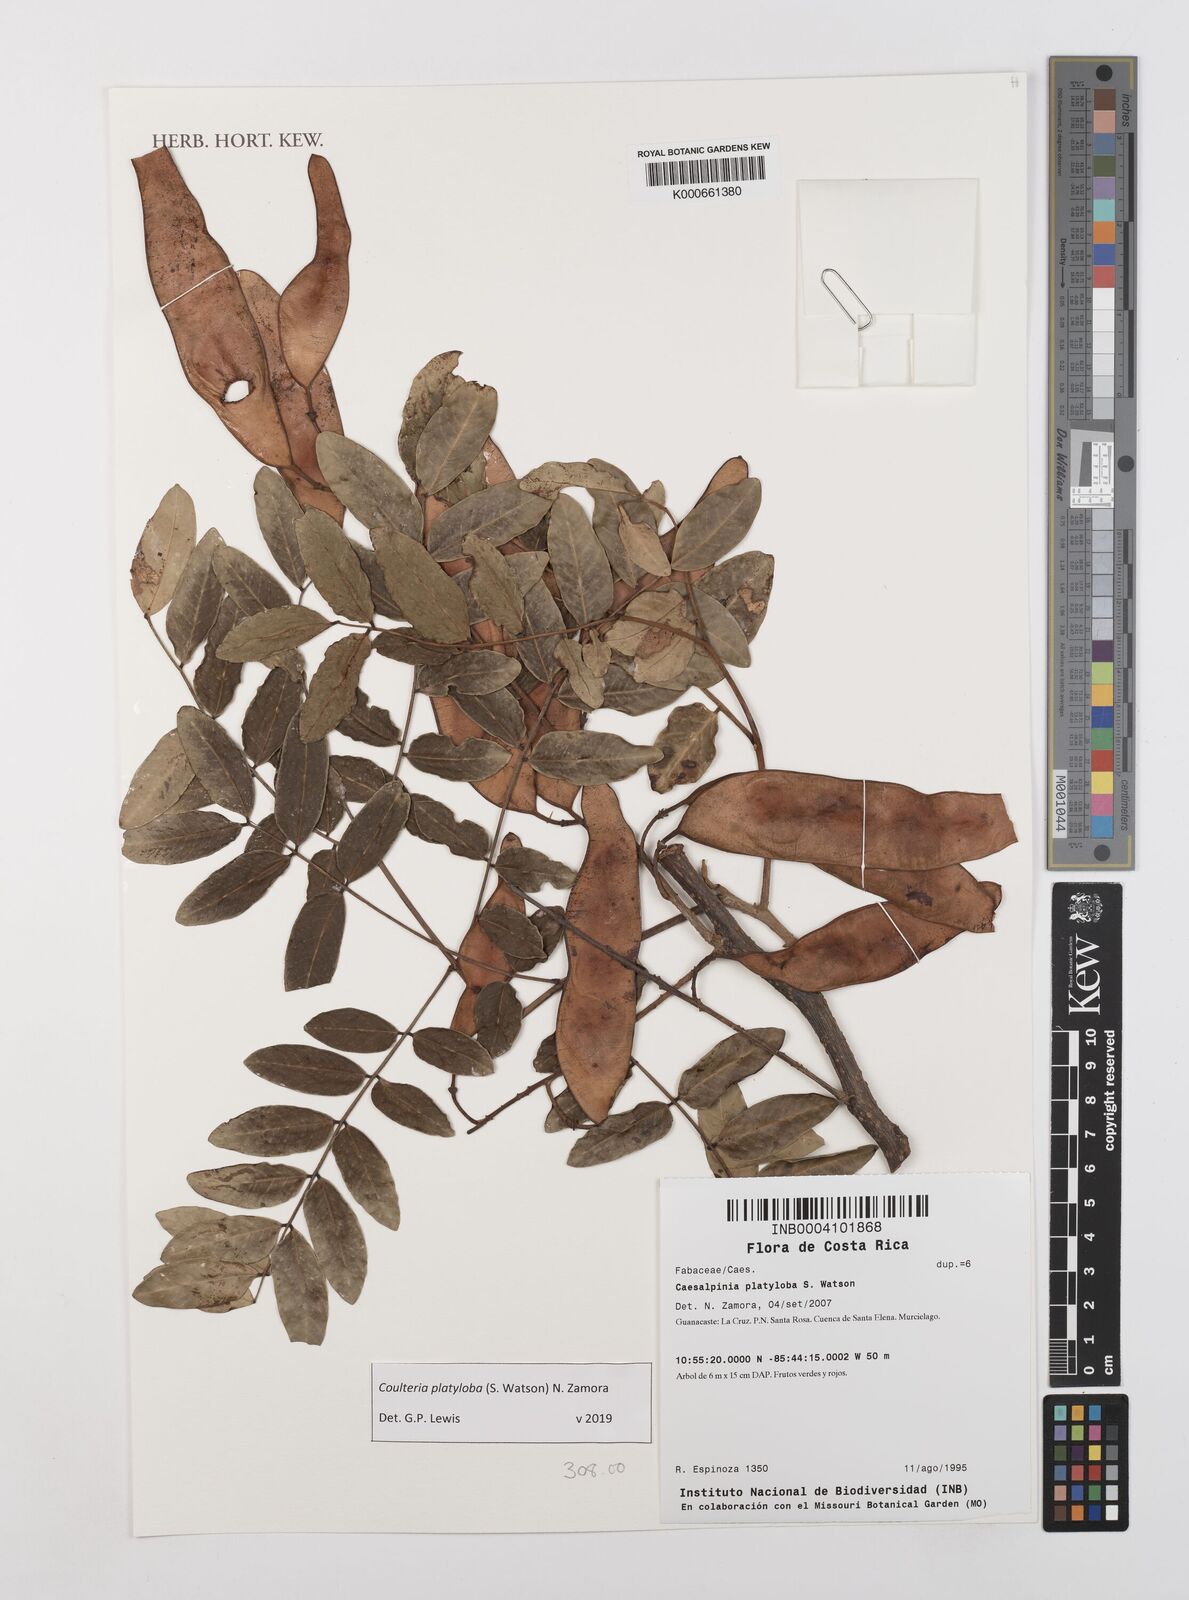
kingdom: Plantae
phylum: Tracheophyta
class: Magnoliopsida
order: Fabales
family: Fabaceae
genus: Coulteria
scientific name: Coulteria platyloba
